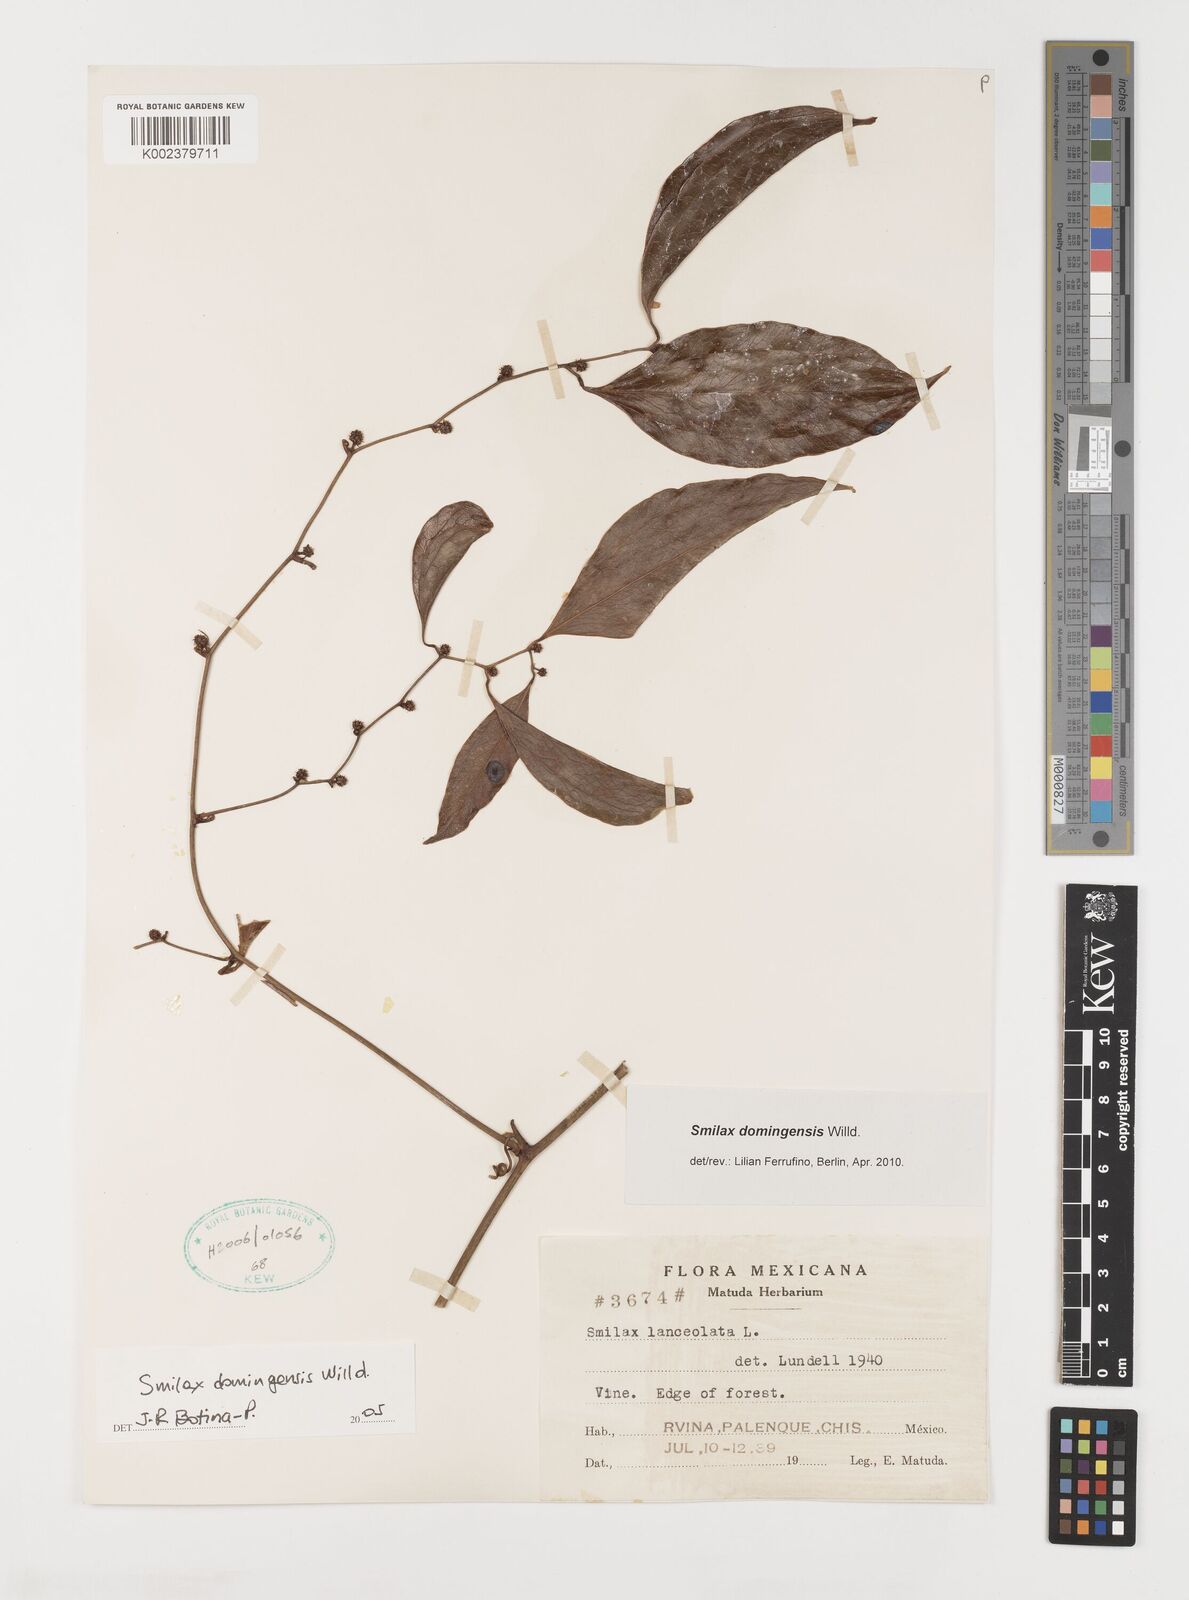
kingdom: Plantae
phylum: Tracheophyta
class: Liliopsida
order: Liliales
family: Smilacaceae
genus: Smilax
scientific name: Smilax domingensis
